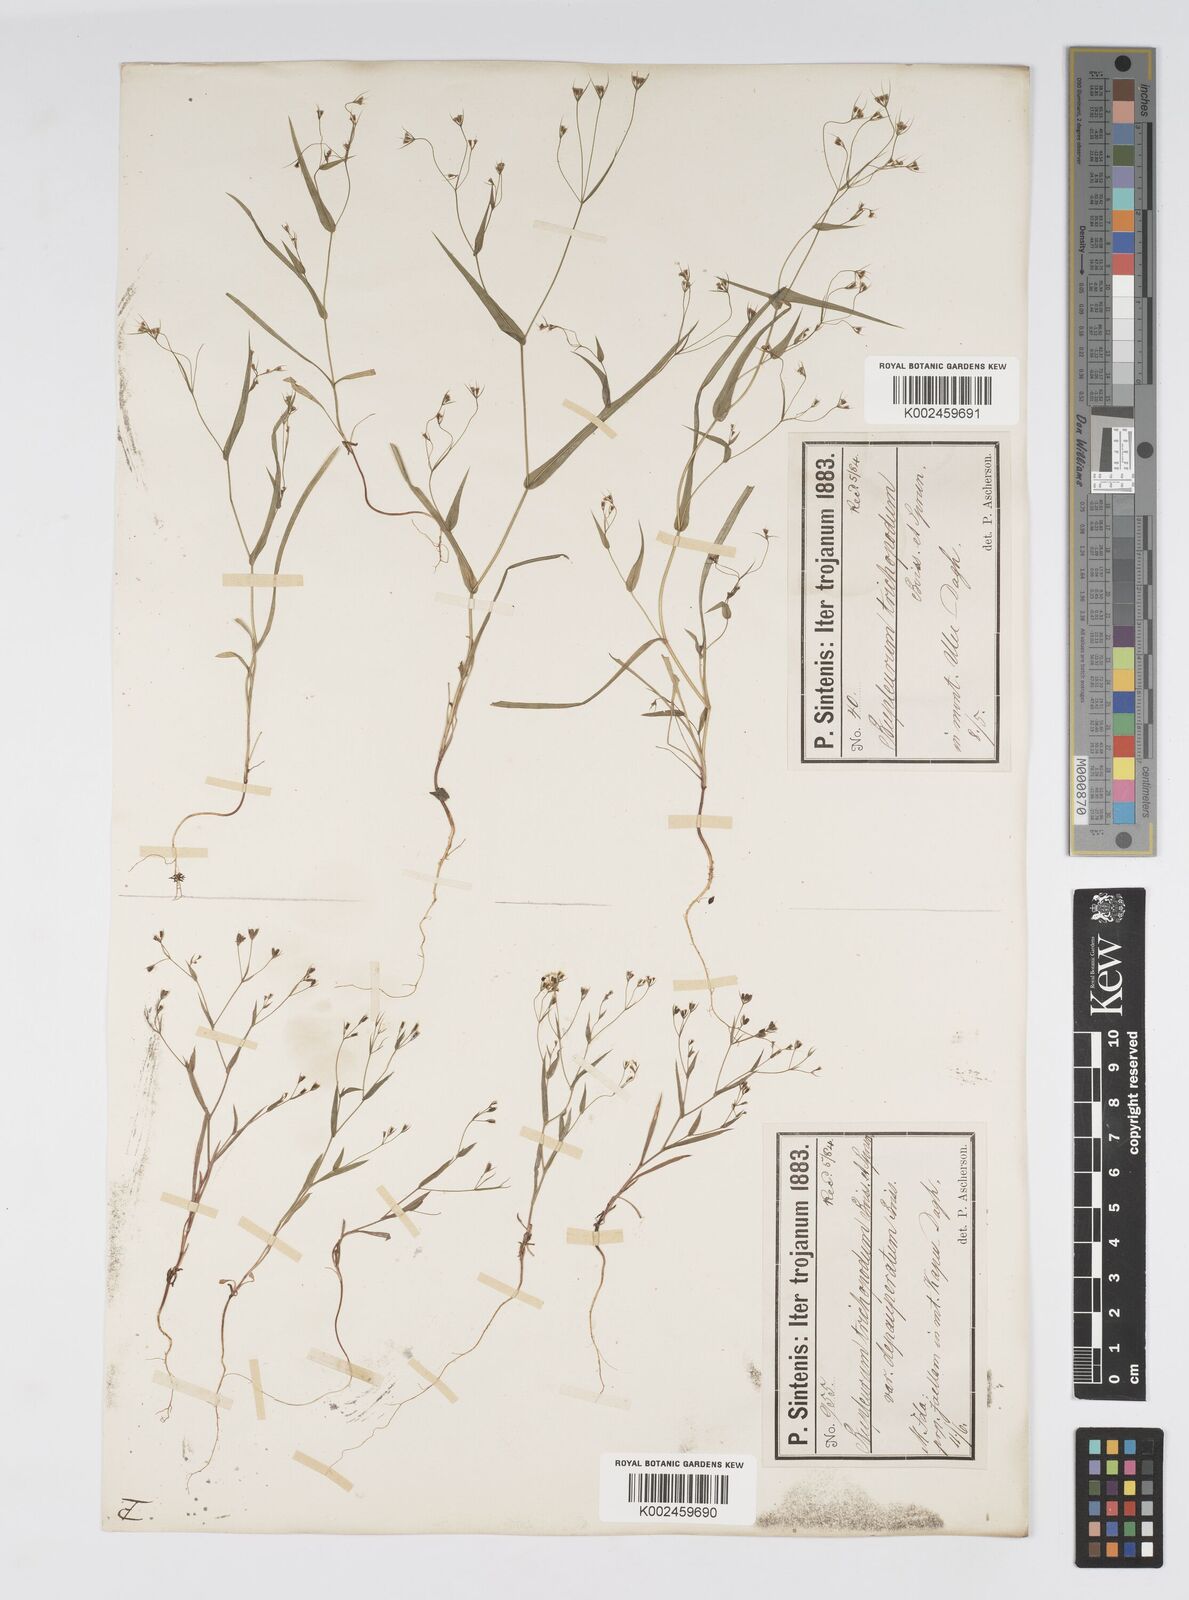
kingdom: Plantae
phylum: Tracheophyta
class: Magnoliopsida
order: Apiales
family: Apiaceae
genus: Bupleurum
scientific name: Bupleurum trichopodum
